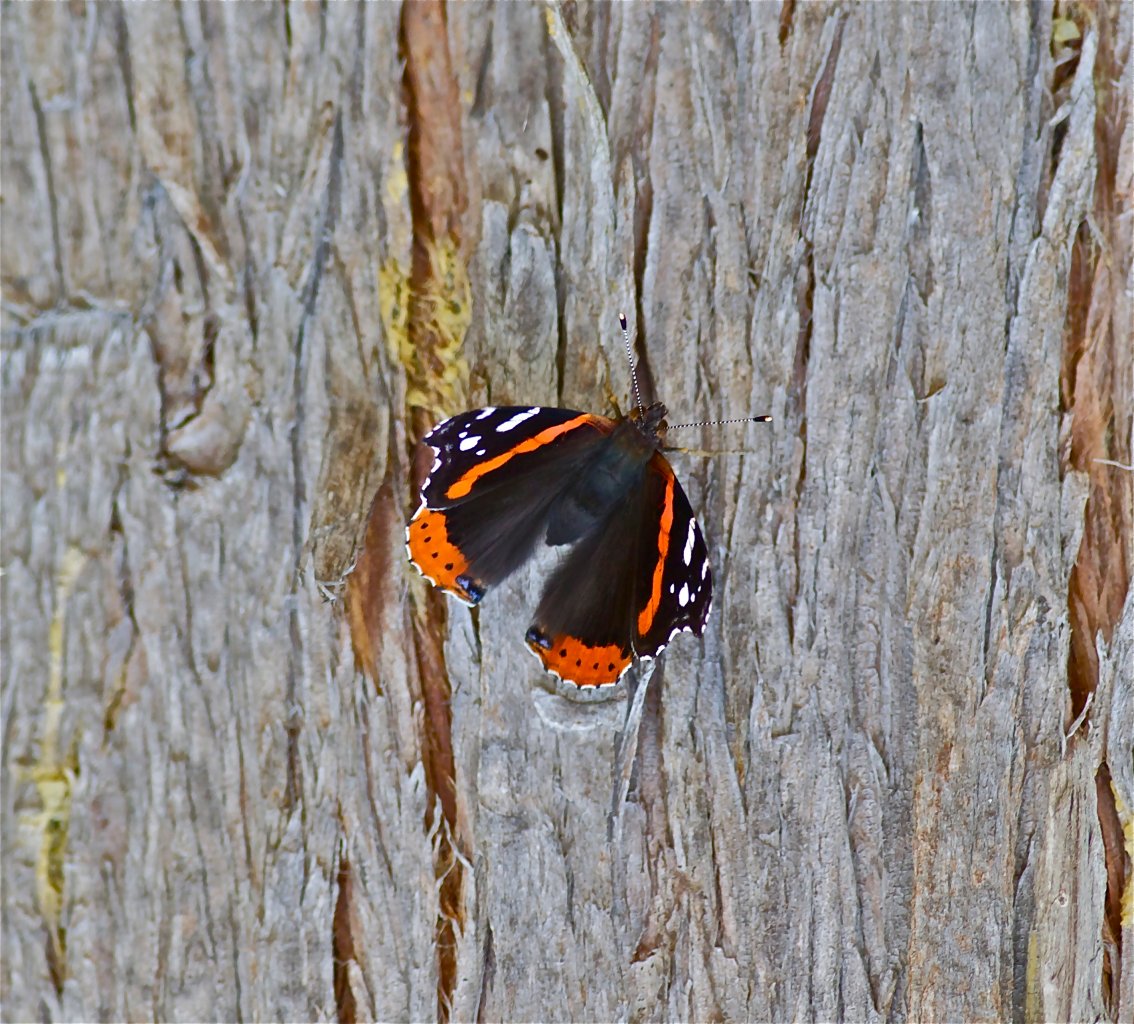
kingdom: Animalia
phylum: Arthropoda
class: Insecta
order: Lepidoptera
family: Nymphalidae
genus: Vanessa
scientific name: Vanessa atalanta
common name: Red Admiral
